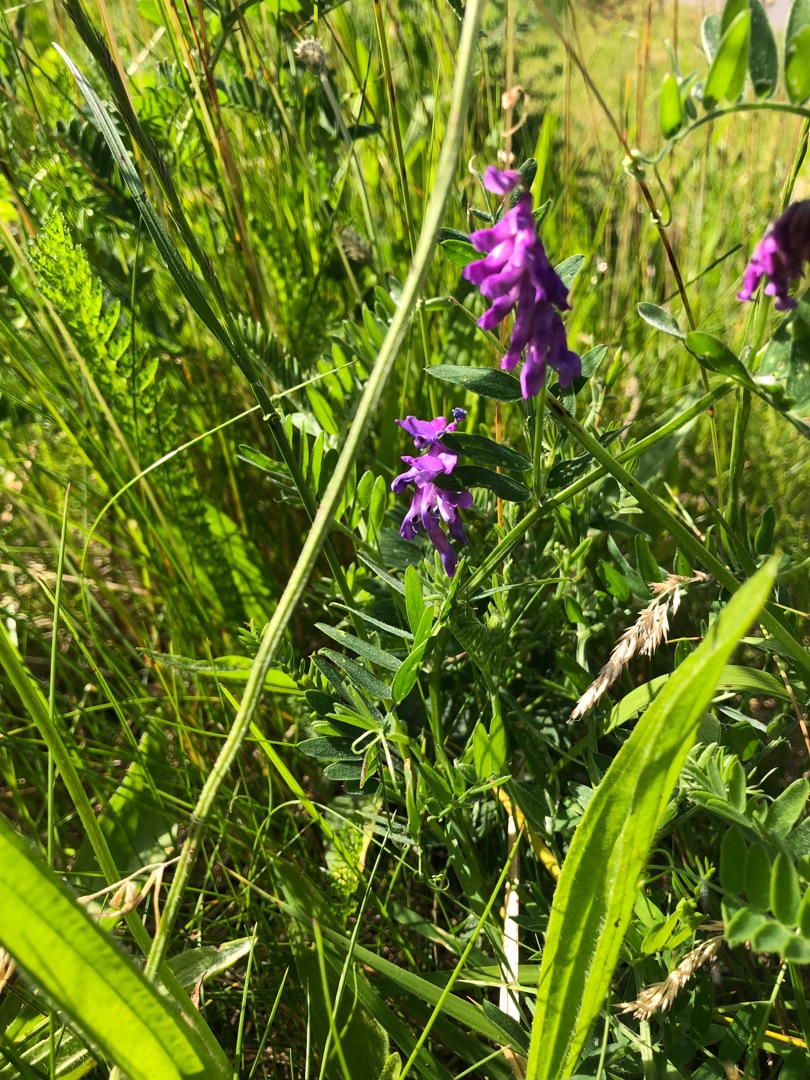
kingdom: Plantae
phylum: Tracheophyta
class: Magnoliopsida
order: Fabales
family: Fabaceae
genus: Vicia
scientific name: Vicia cracca
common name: Muse-vikke
